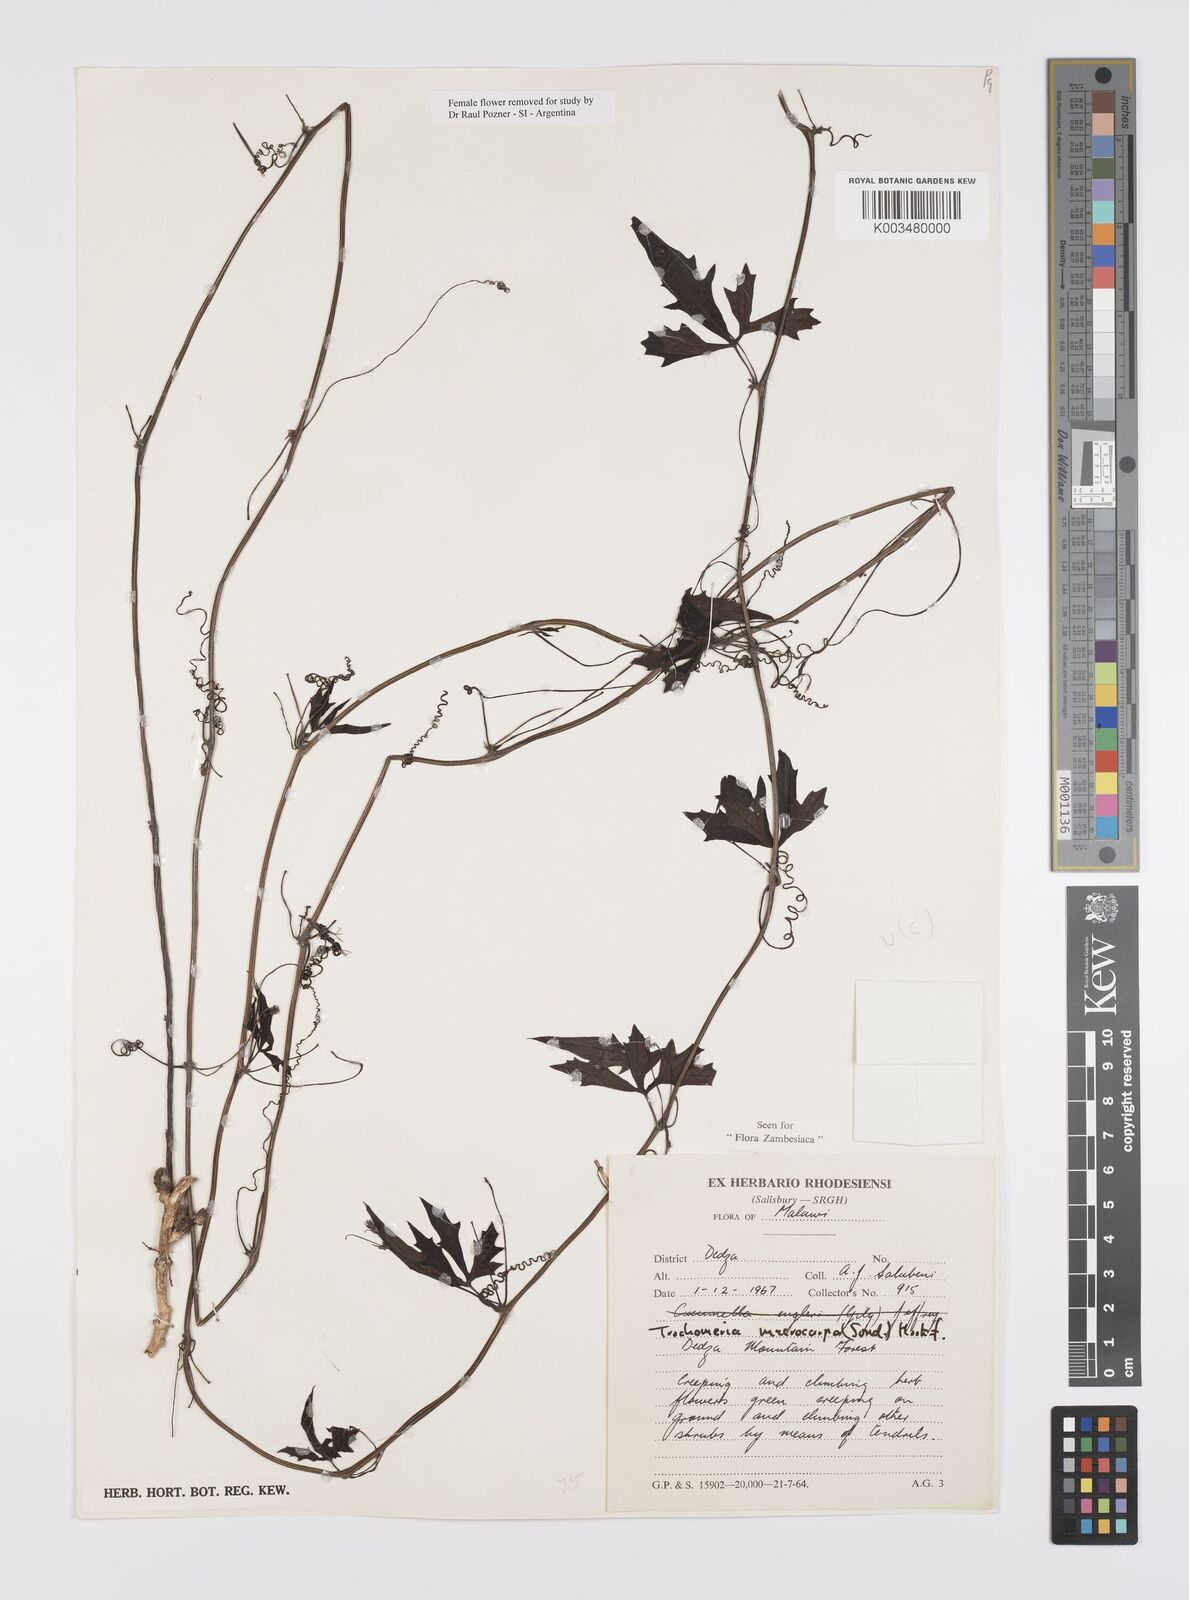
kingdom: Plantae
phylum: Tracheophyta
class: Magnoliopsida
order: Cucurbitales
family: Cucurbitaceae
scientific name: Cucurbitaceae
